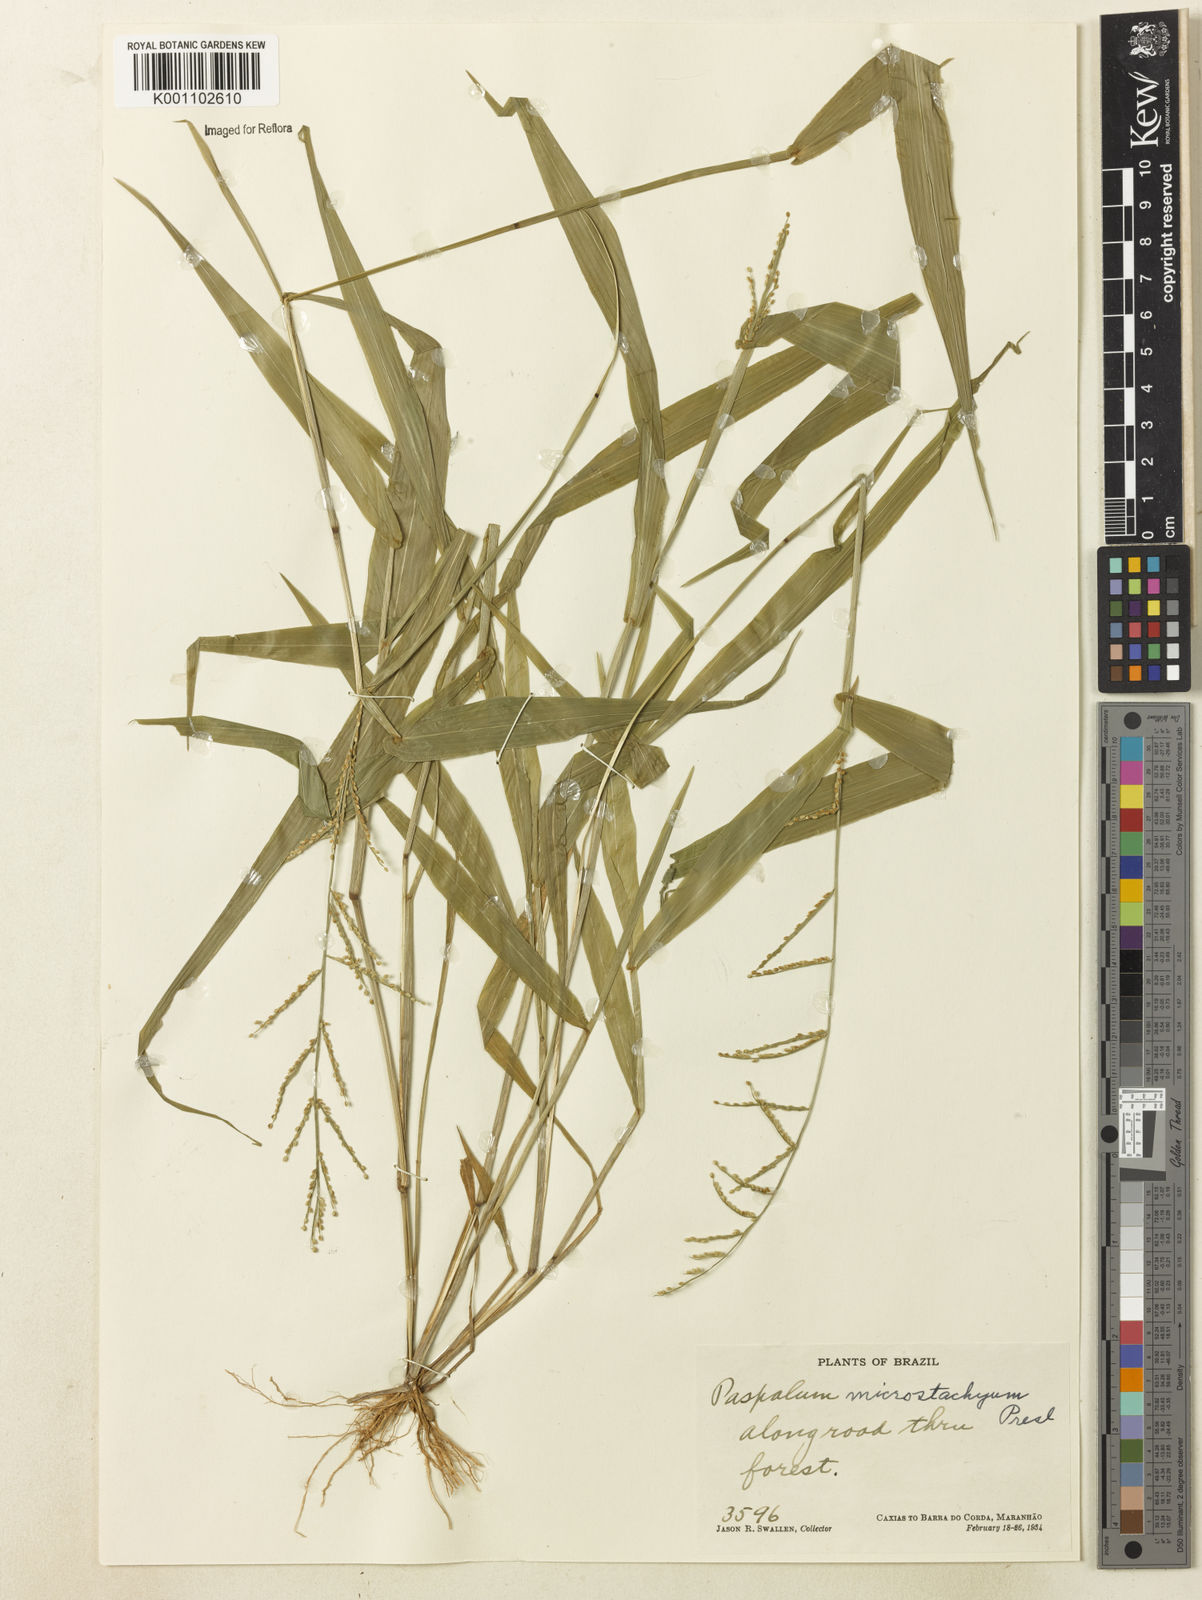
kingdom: Plantae
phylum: Tracheophyta
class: Liliopsida
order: Poales
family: Poaceae
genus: Paspalum
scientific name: Paspalum microstachyum
